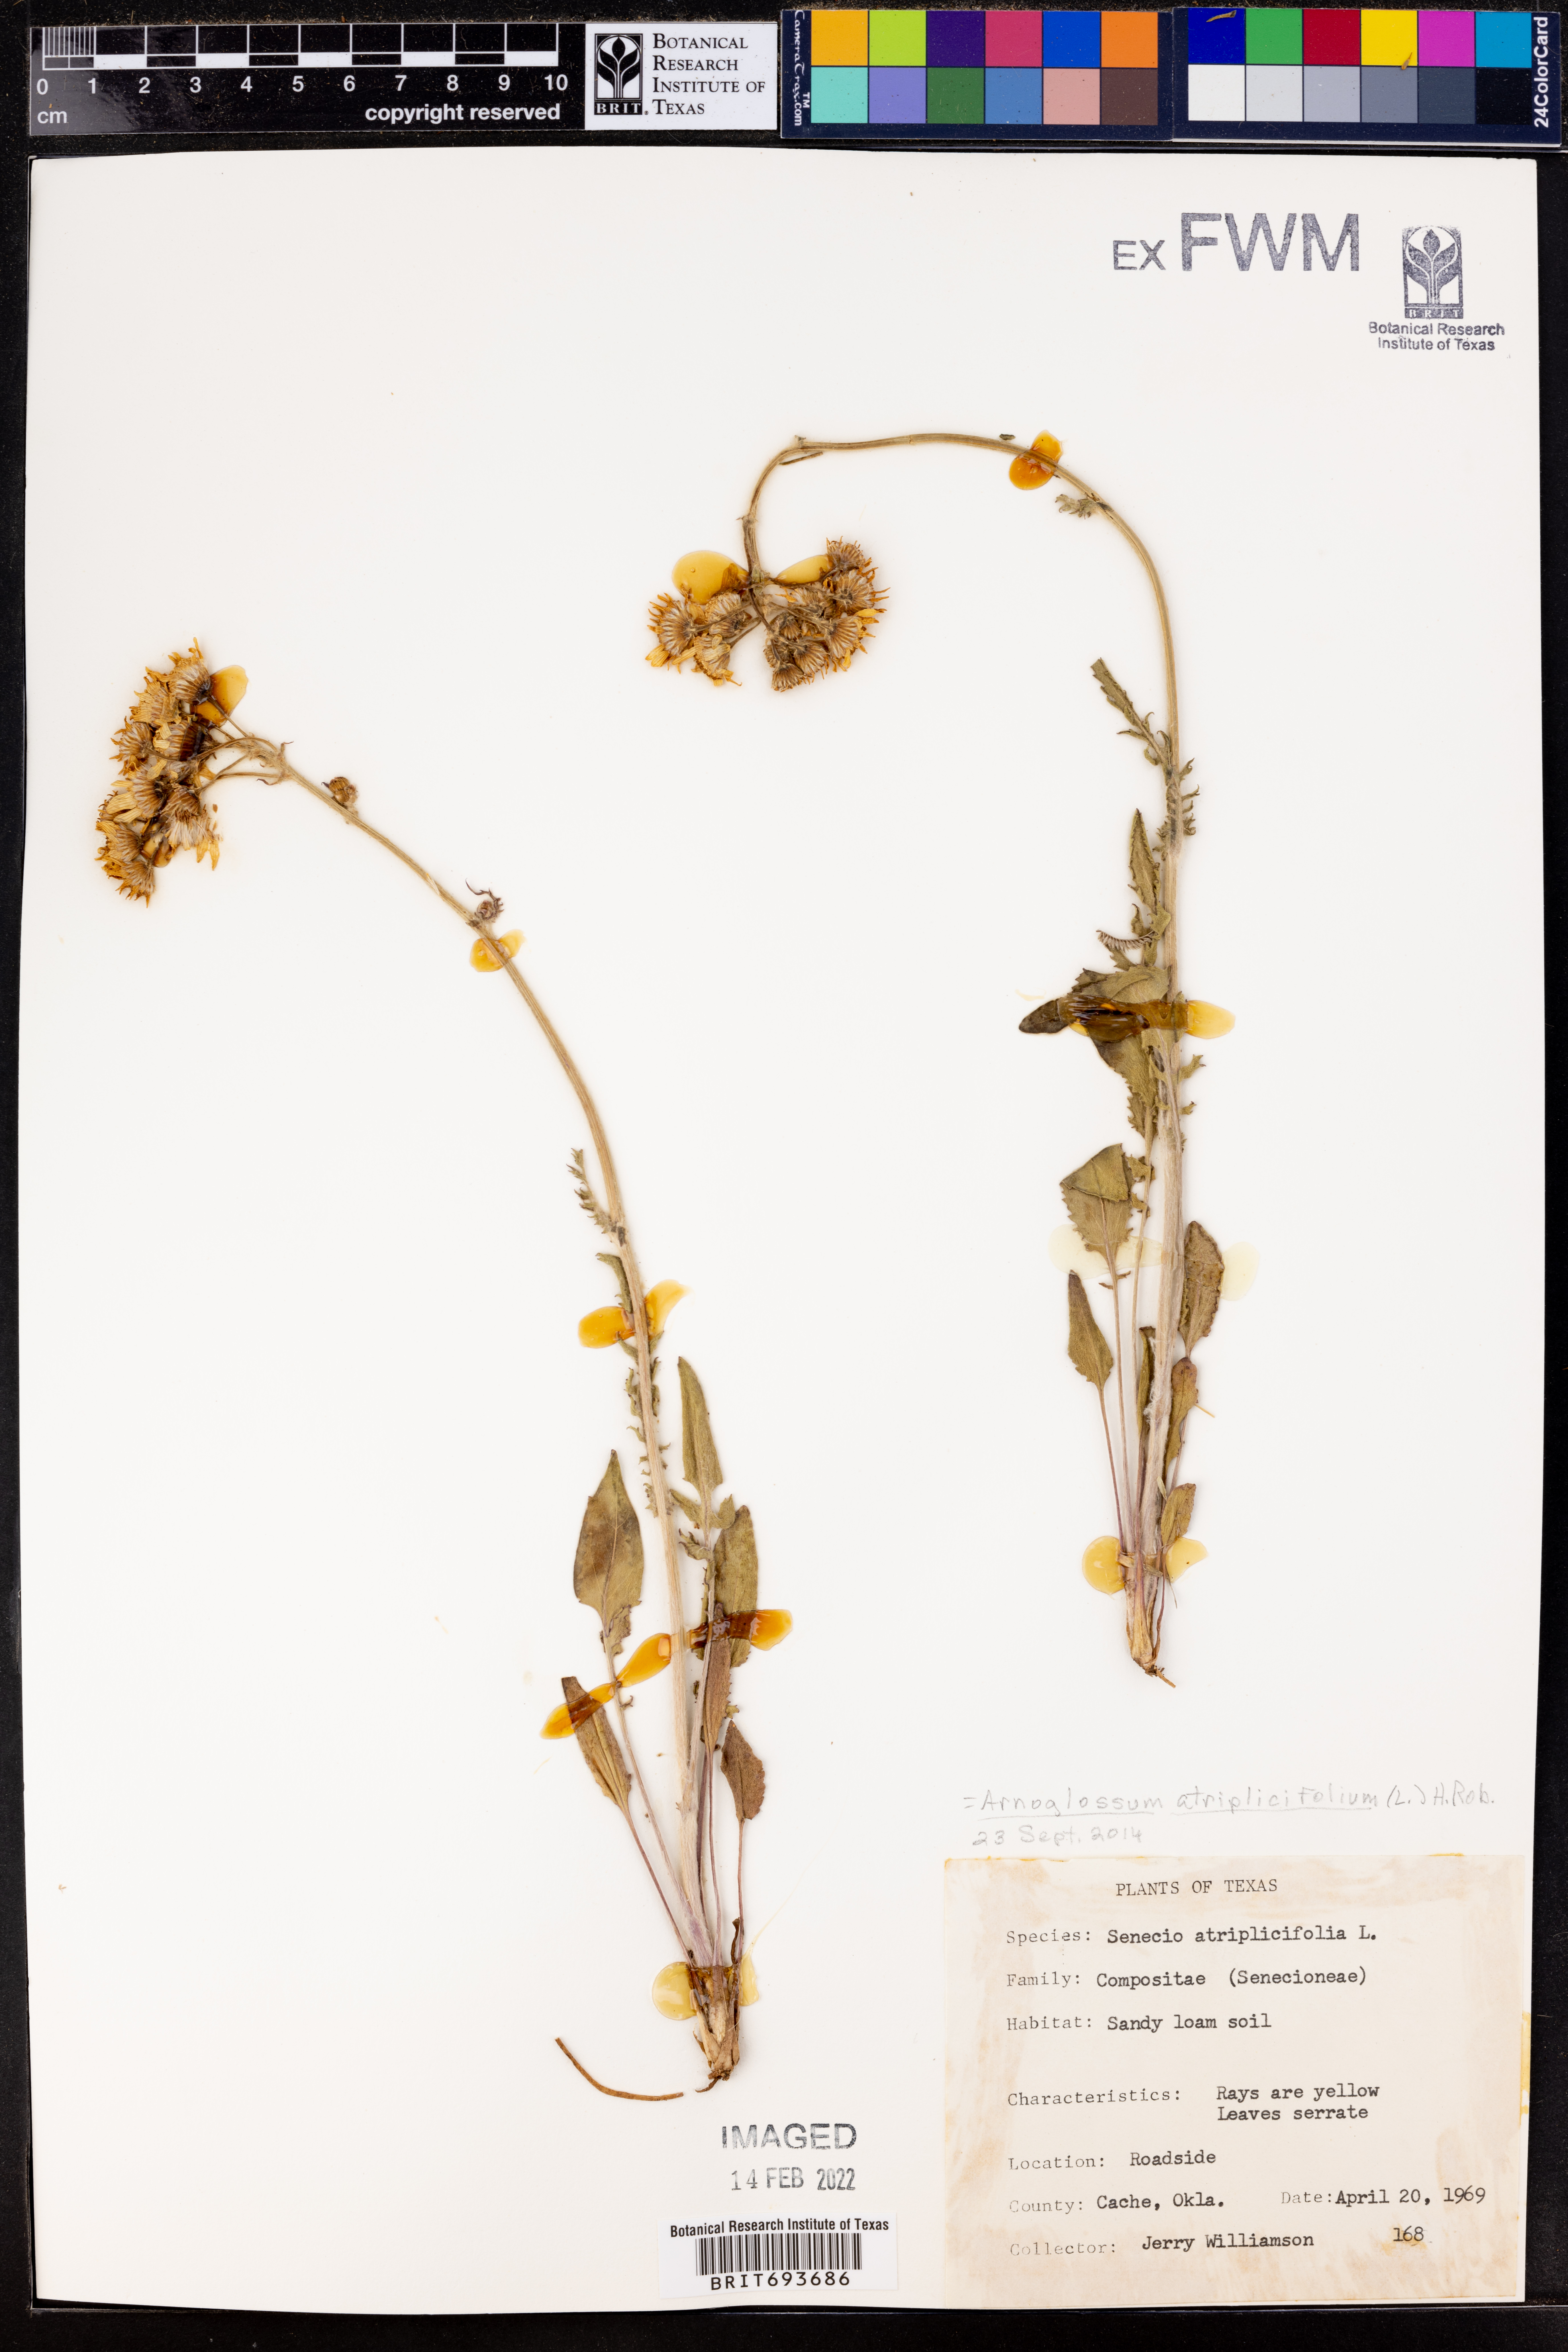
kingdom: Plantae
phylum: Tracheophyta
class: Magnoliopsida
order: Asterales
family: Asteraceae
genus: Arnoglossum
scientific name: Arnoglossum atriplicifolium
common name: Pale indian-plantain
